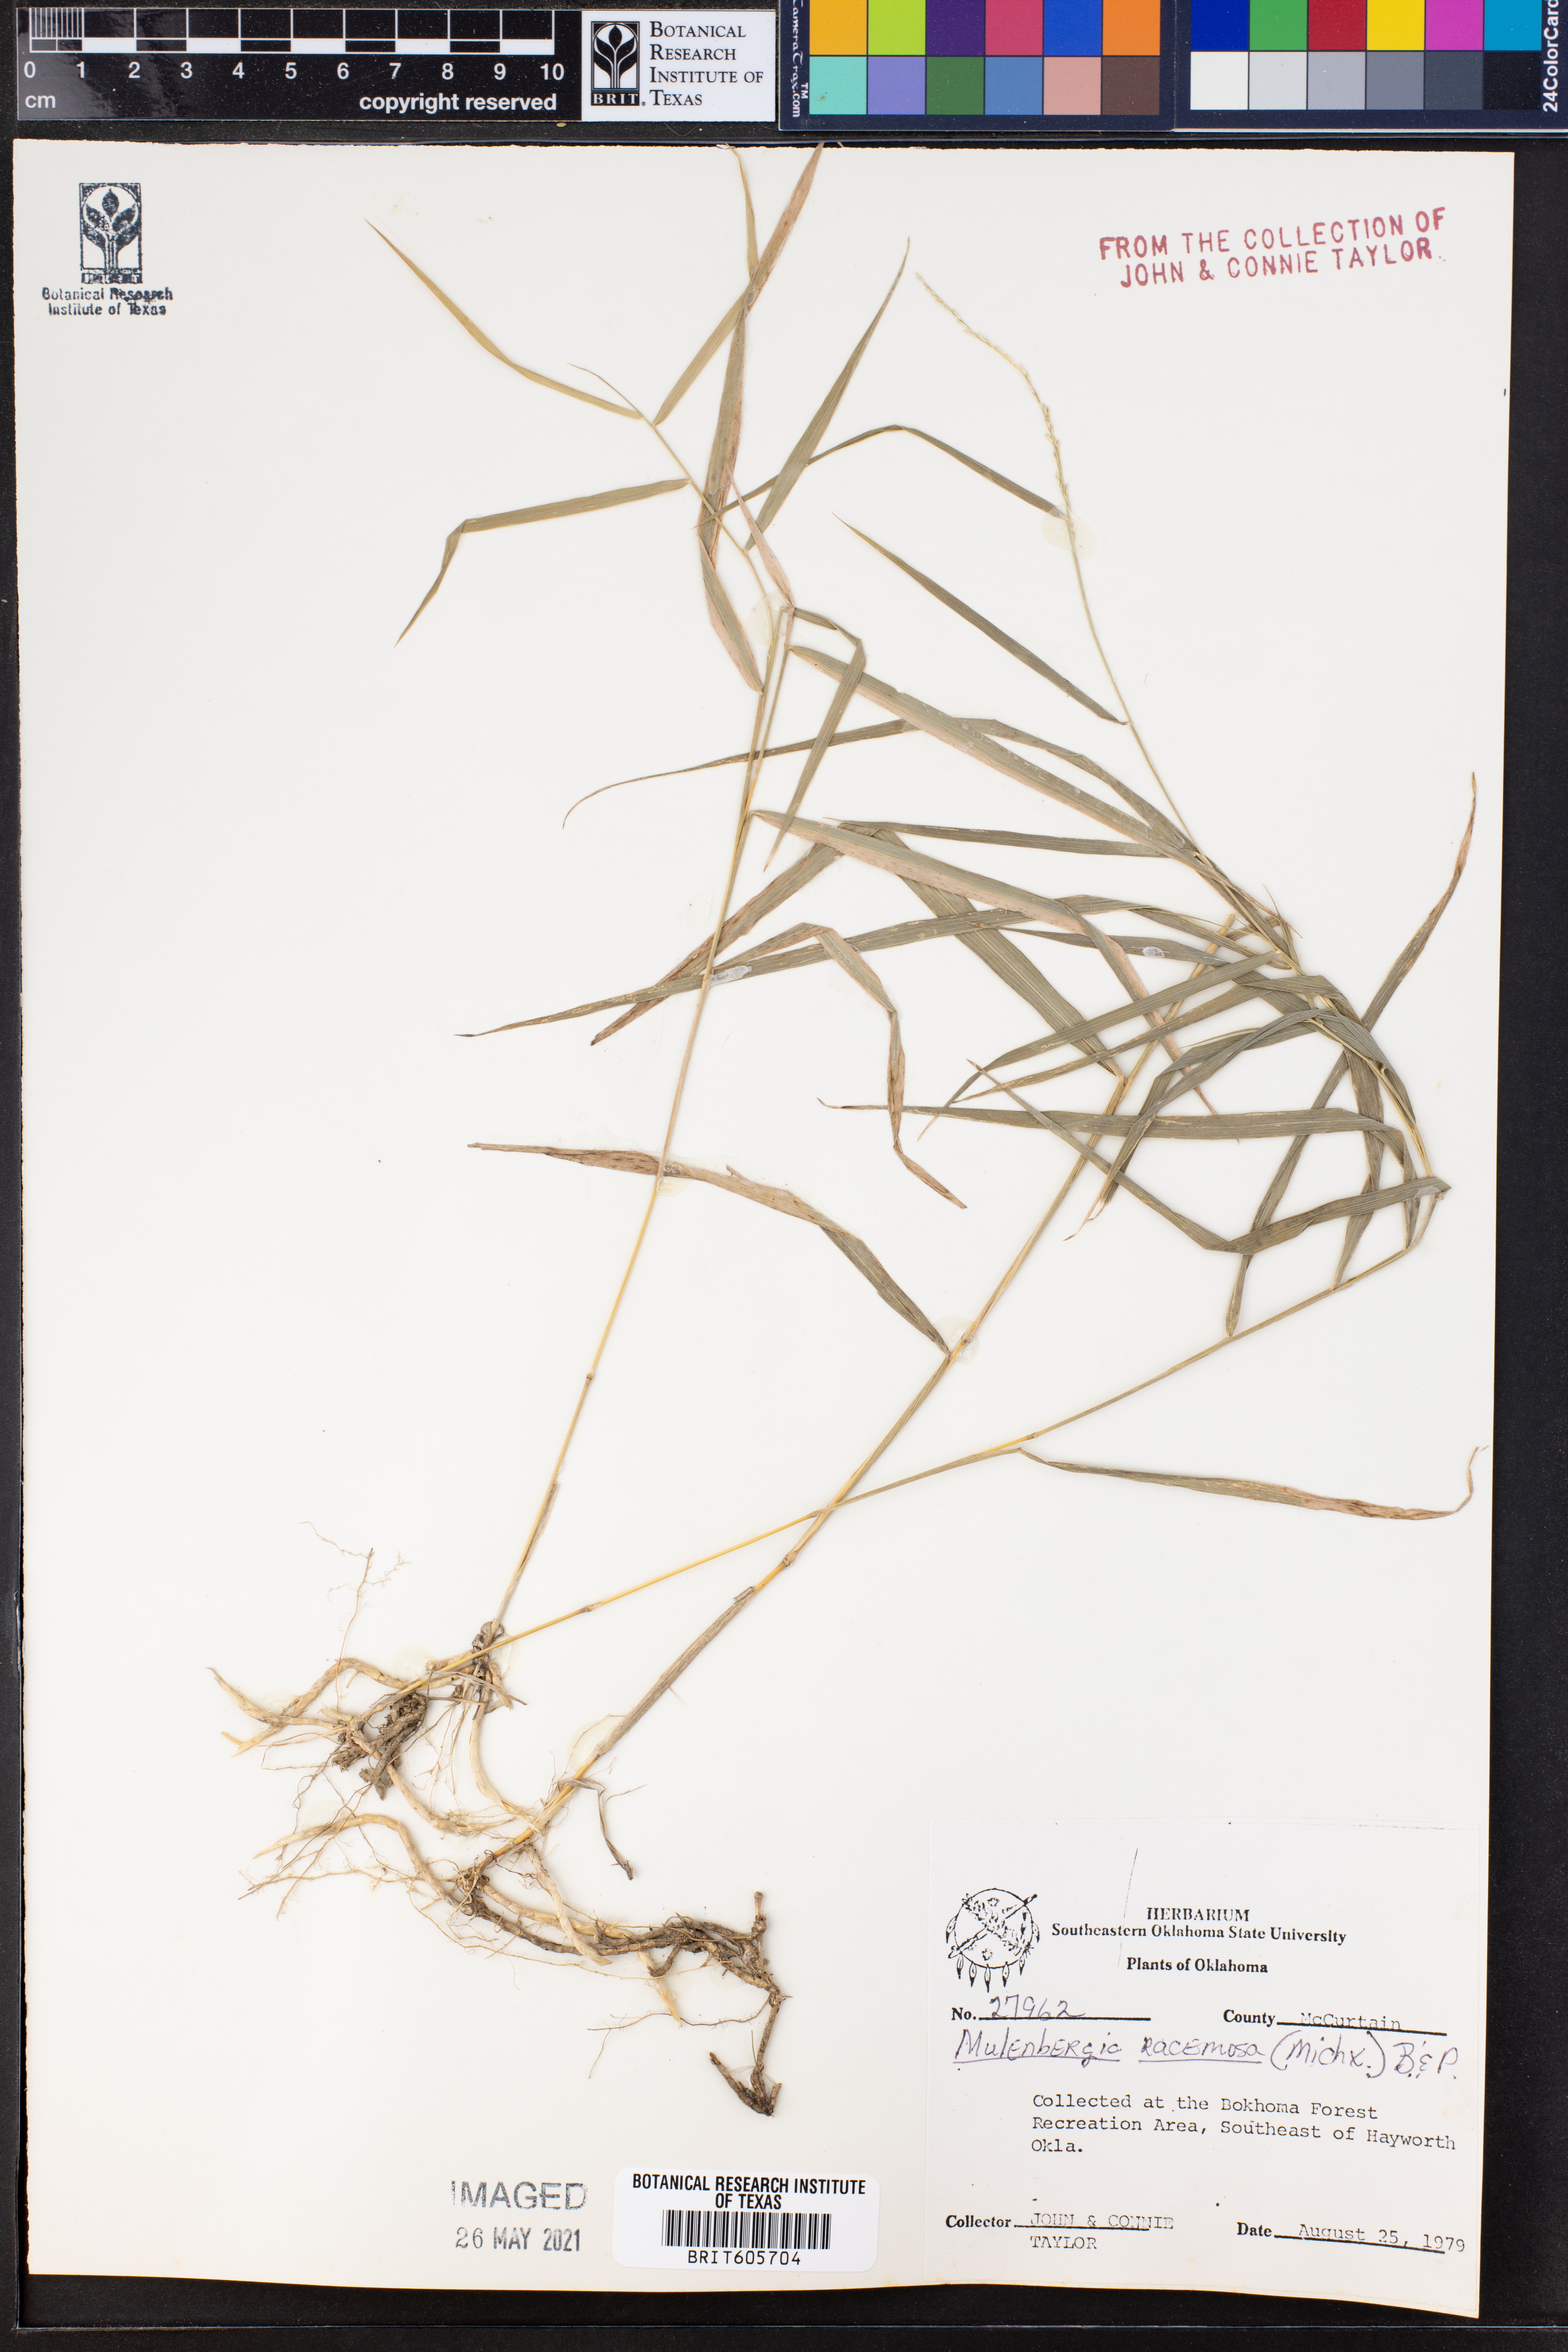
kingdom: Plantae
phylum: Tracheophyta
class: Liliopsida
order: Poales
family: Poaceae
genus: Muhlenbergia
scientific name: Muhlenbergia racemosa
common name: Green muhly
